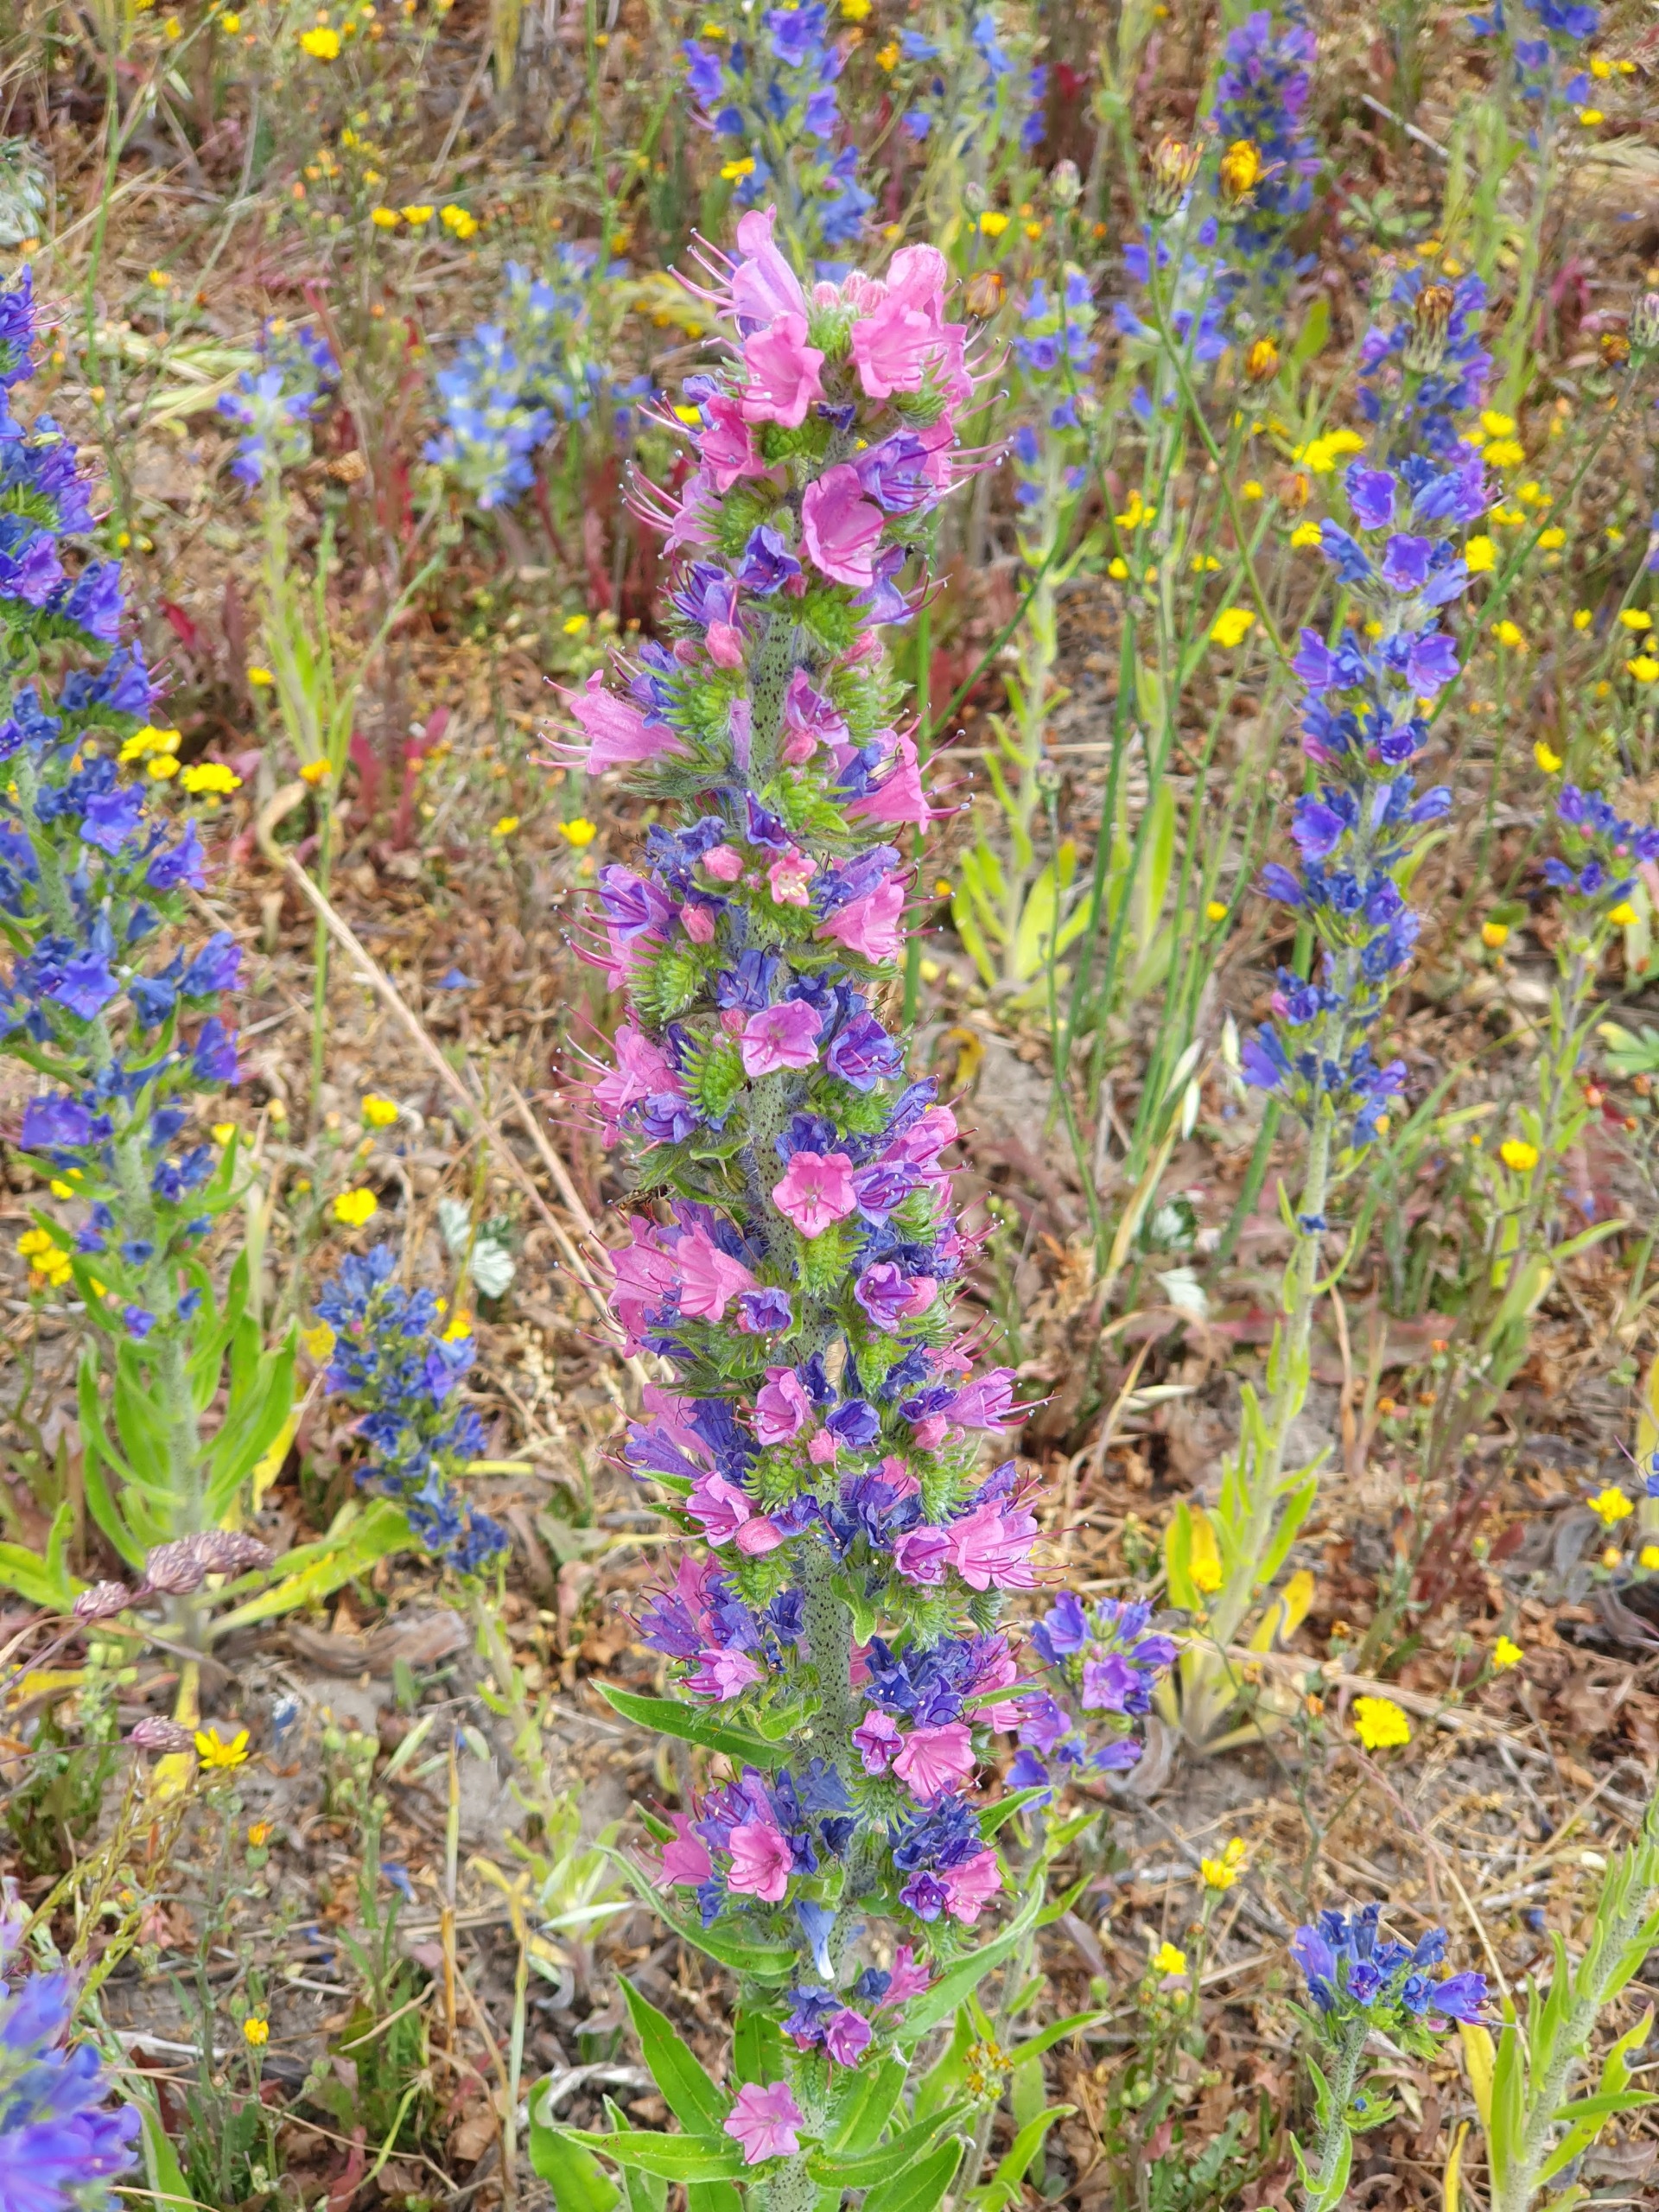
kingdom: Plantae
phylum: Tracheophyta
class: Magnoliopsida
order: Boraginales
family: Boraginaceae
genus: Echium
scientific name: Echium vulgare
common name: Slangehoved
